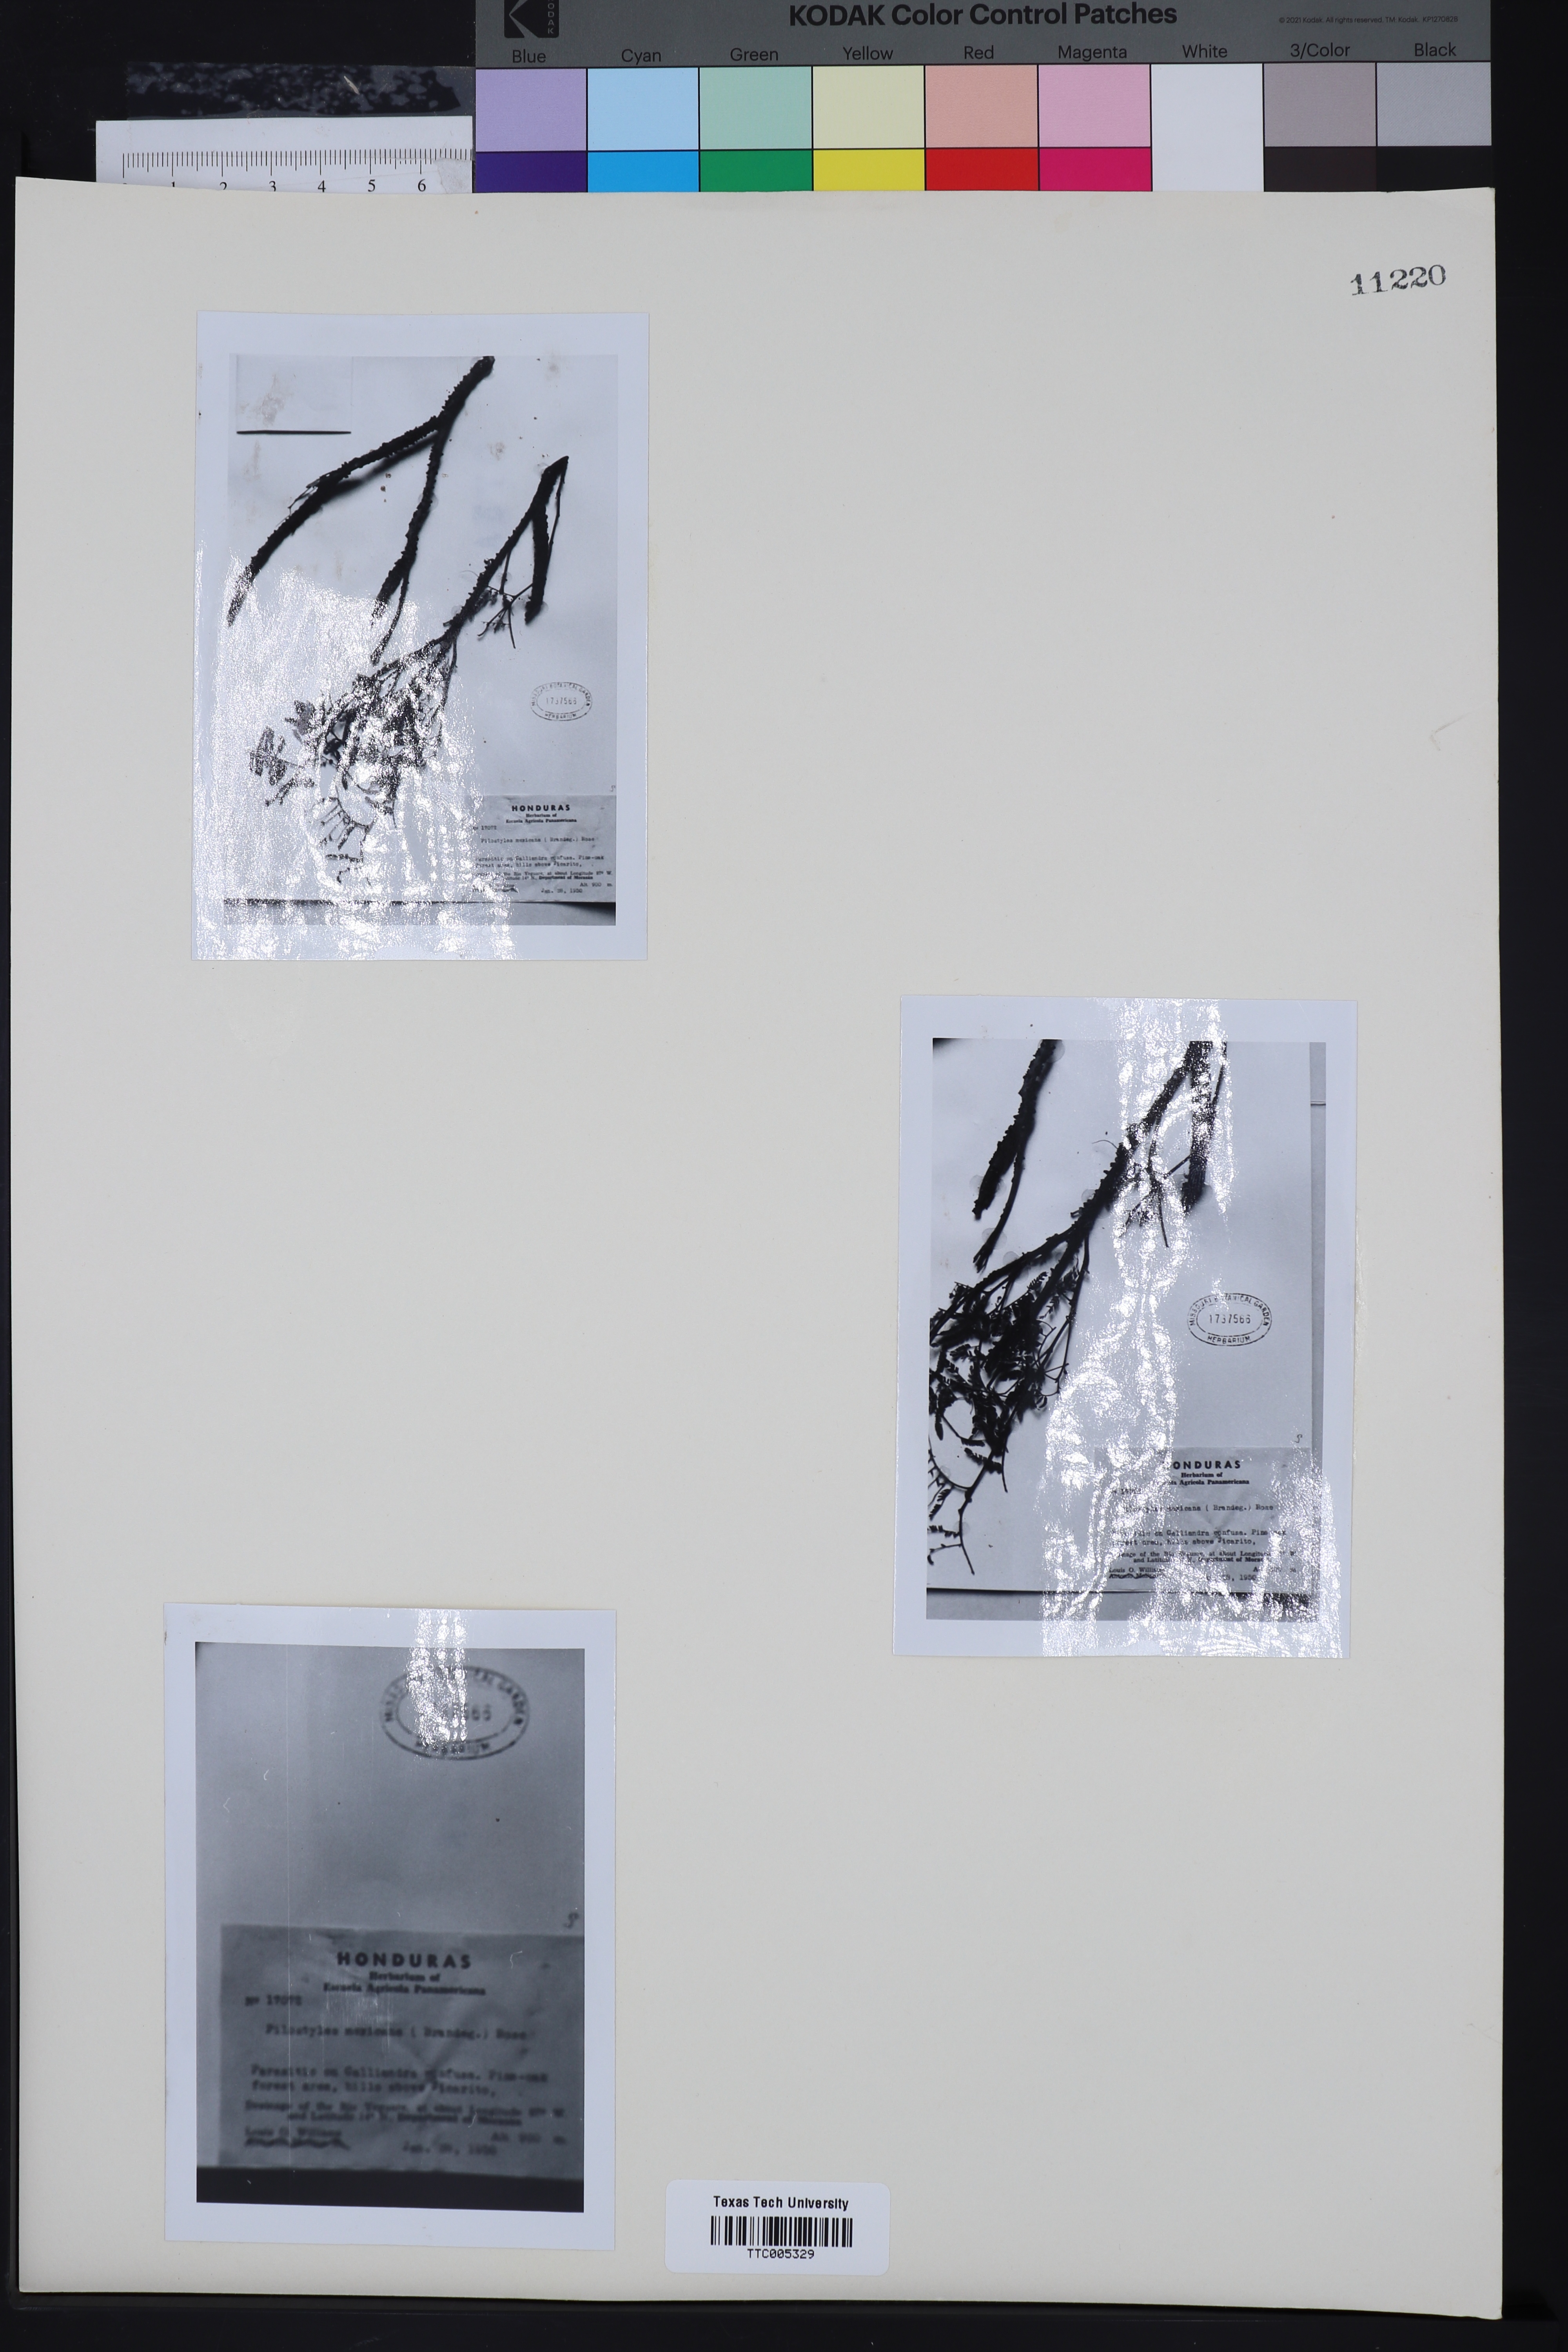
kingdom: Plantae
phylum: Tracheophyta
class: Magnoliopsida
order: Cucurbitales
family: Apodanthaceae
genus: Pilostyles
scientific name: Pilostyles mexicana
